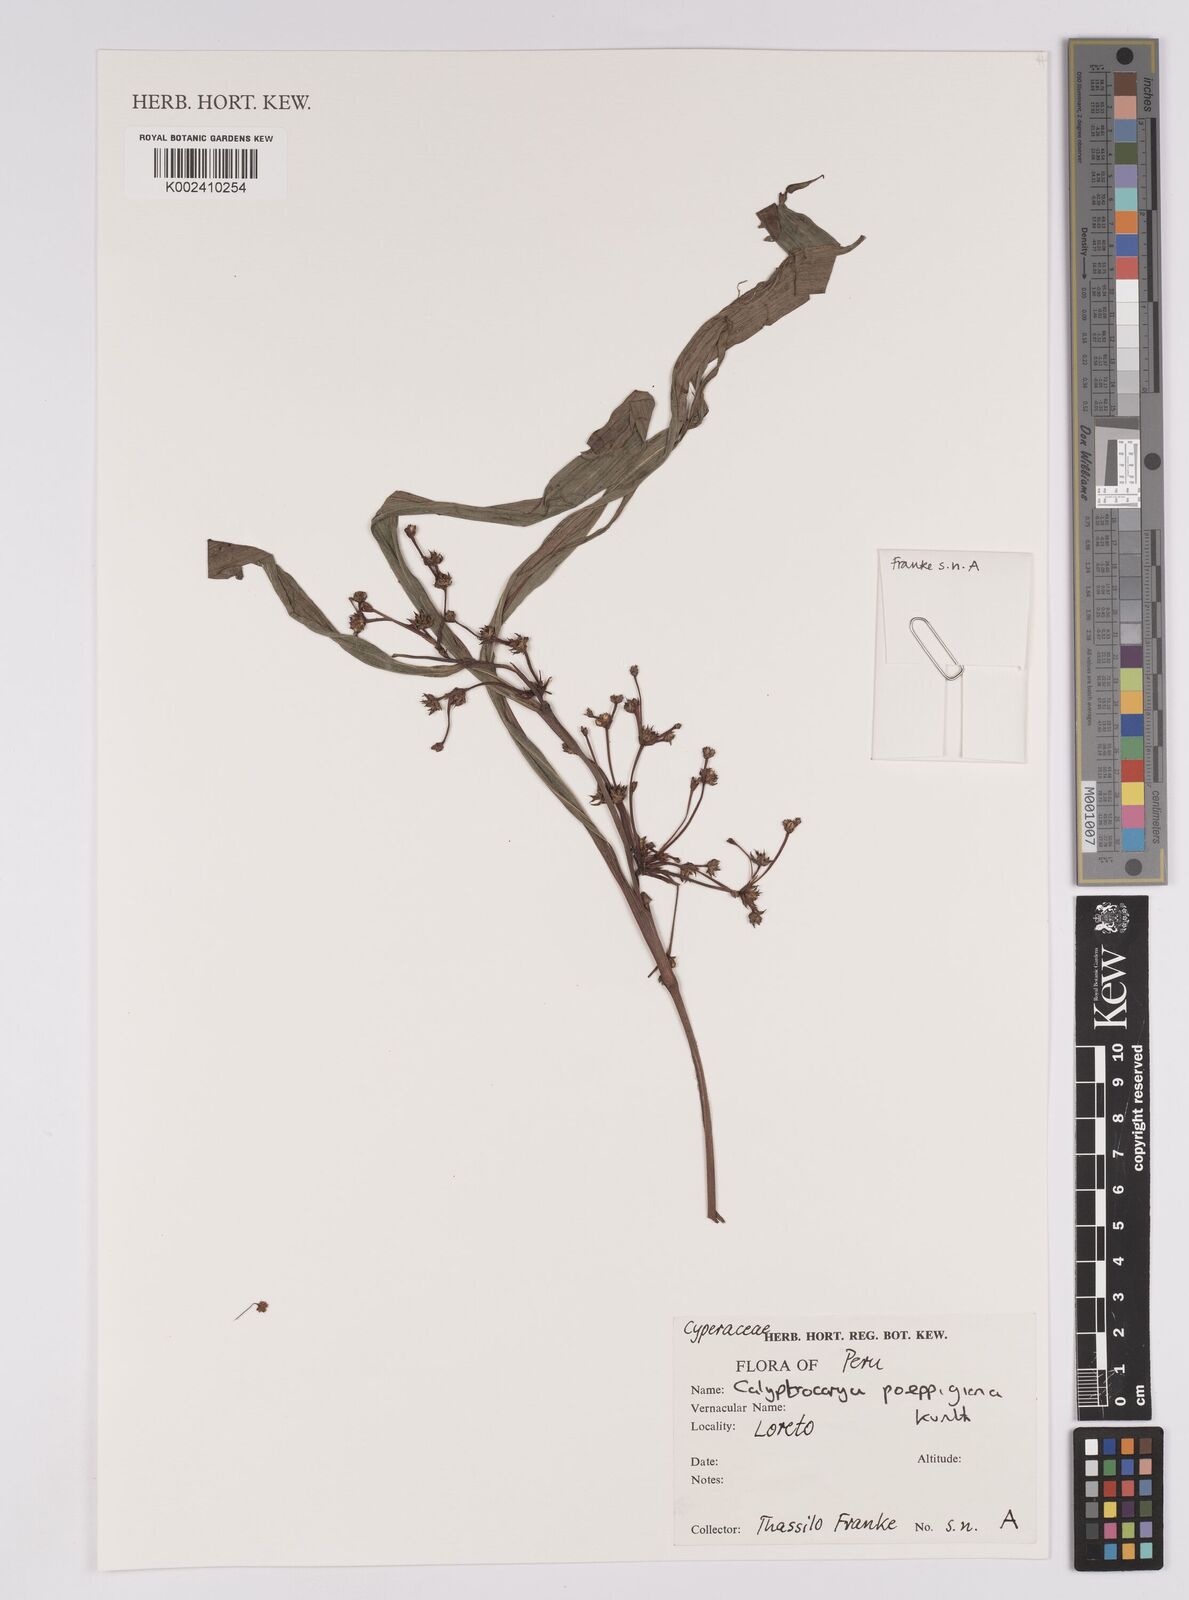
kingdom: Plantae
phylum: Tracheophyta
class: Liliopsida
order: Poales
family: Cyperaceae
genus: Calyptrocarya
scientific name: Calyptrocarya poeppigiana
